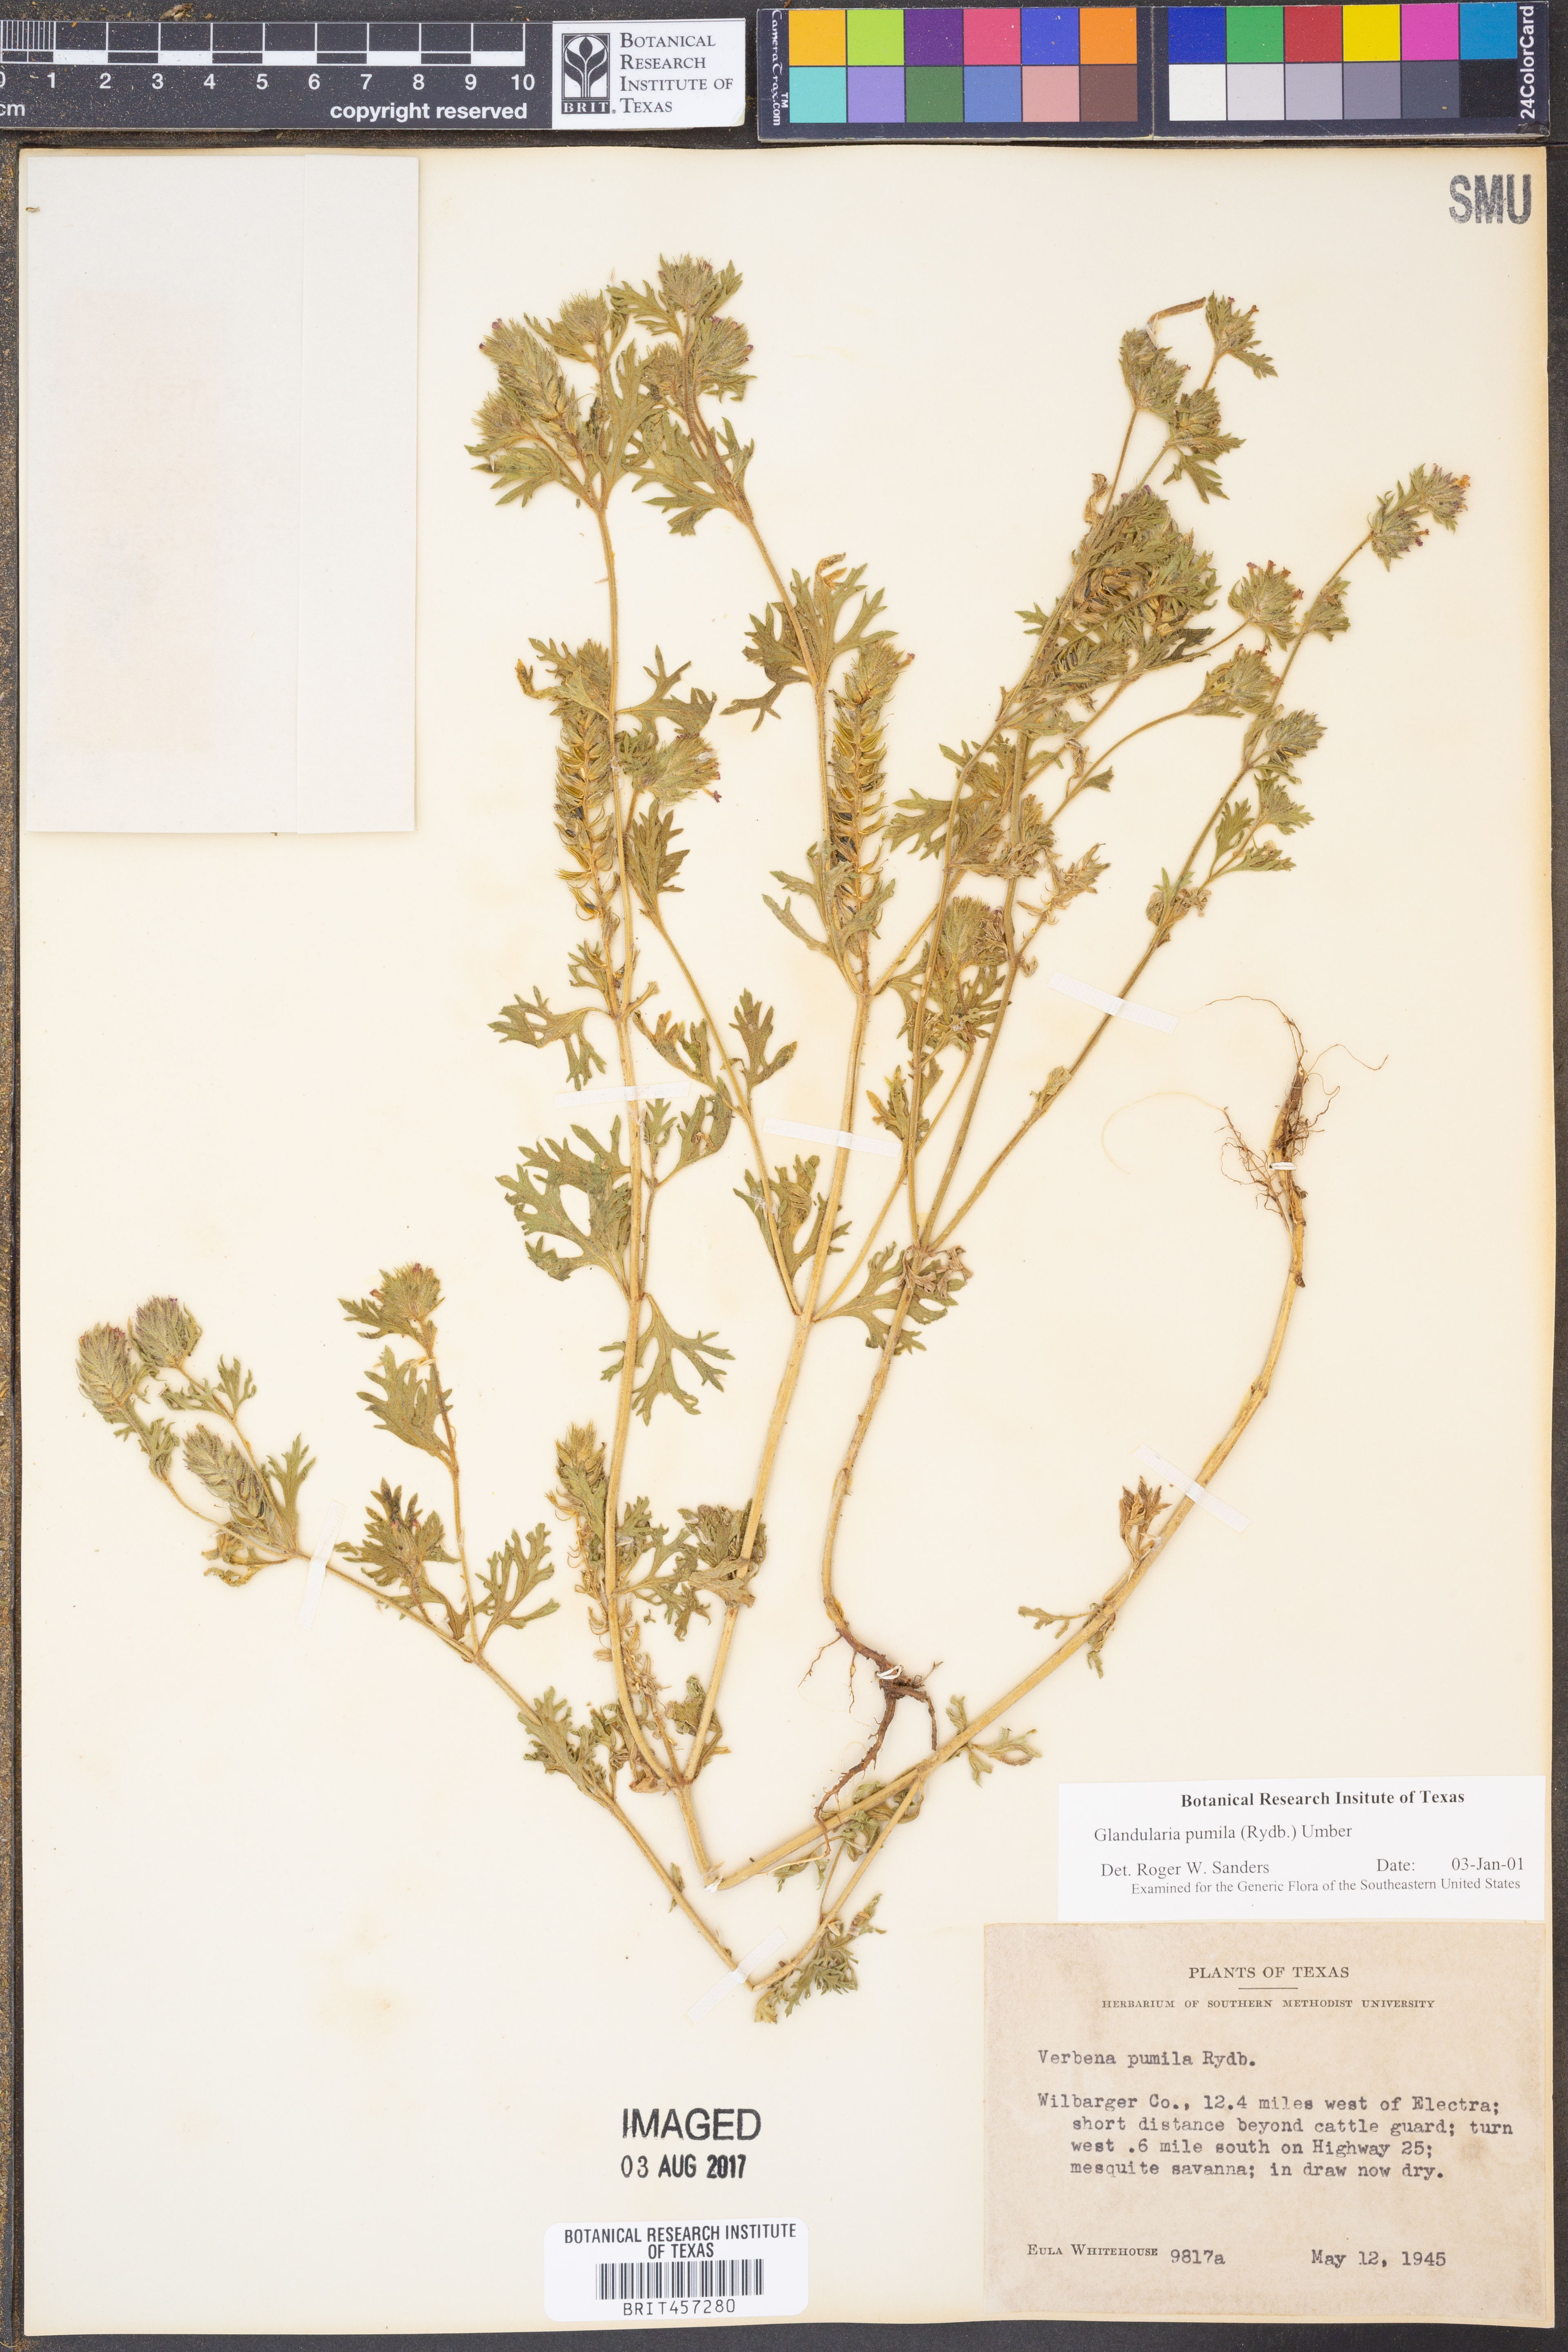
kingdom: Plantae
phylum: Tracheophyta
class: Magnoliopsida
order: Lamiales
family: Verbenaceae
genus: Verbena
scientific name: Verbena pumila
